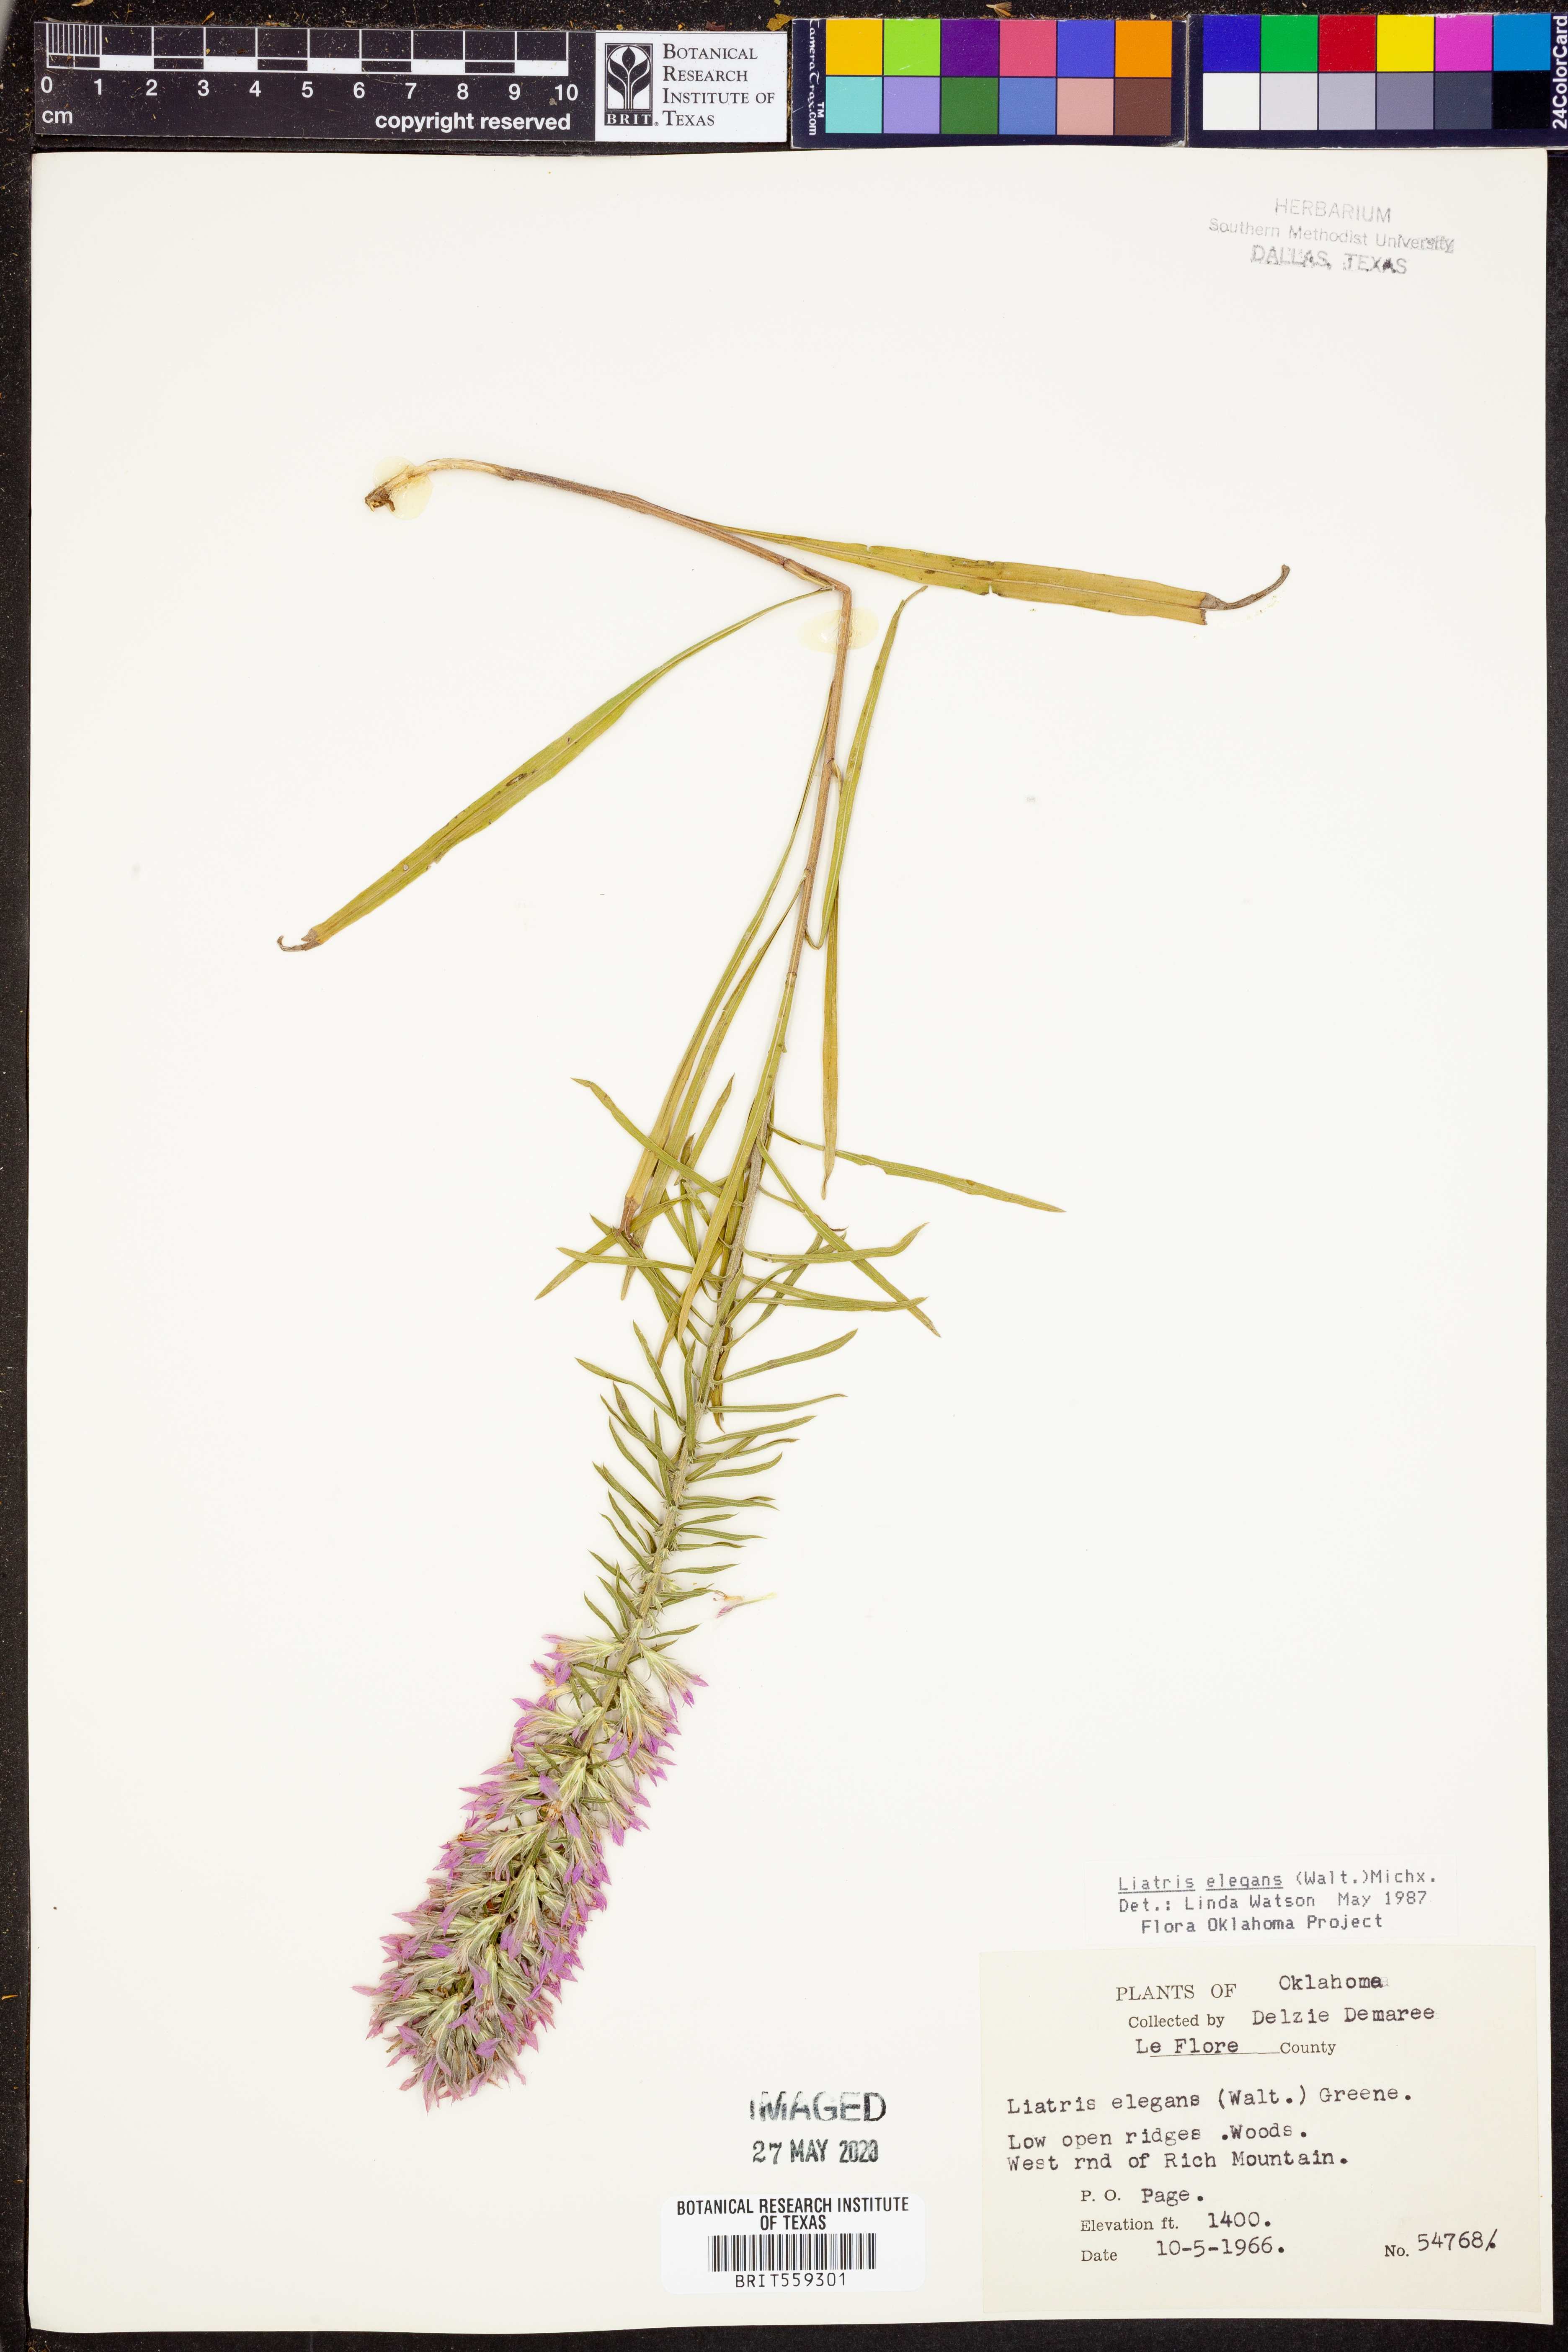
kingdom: Plantae
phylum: Tracheophyta
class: Magnoliopsida
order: Asterales
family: Asteraceae
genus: Liatris
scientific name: Liatris elegans
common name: Pinkscale gayfeather
